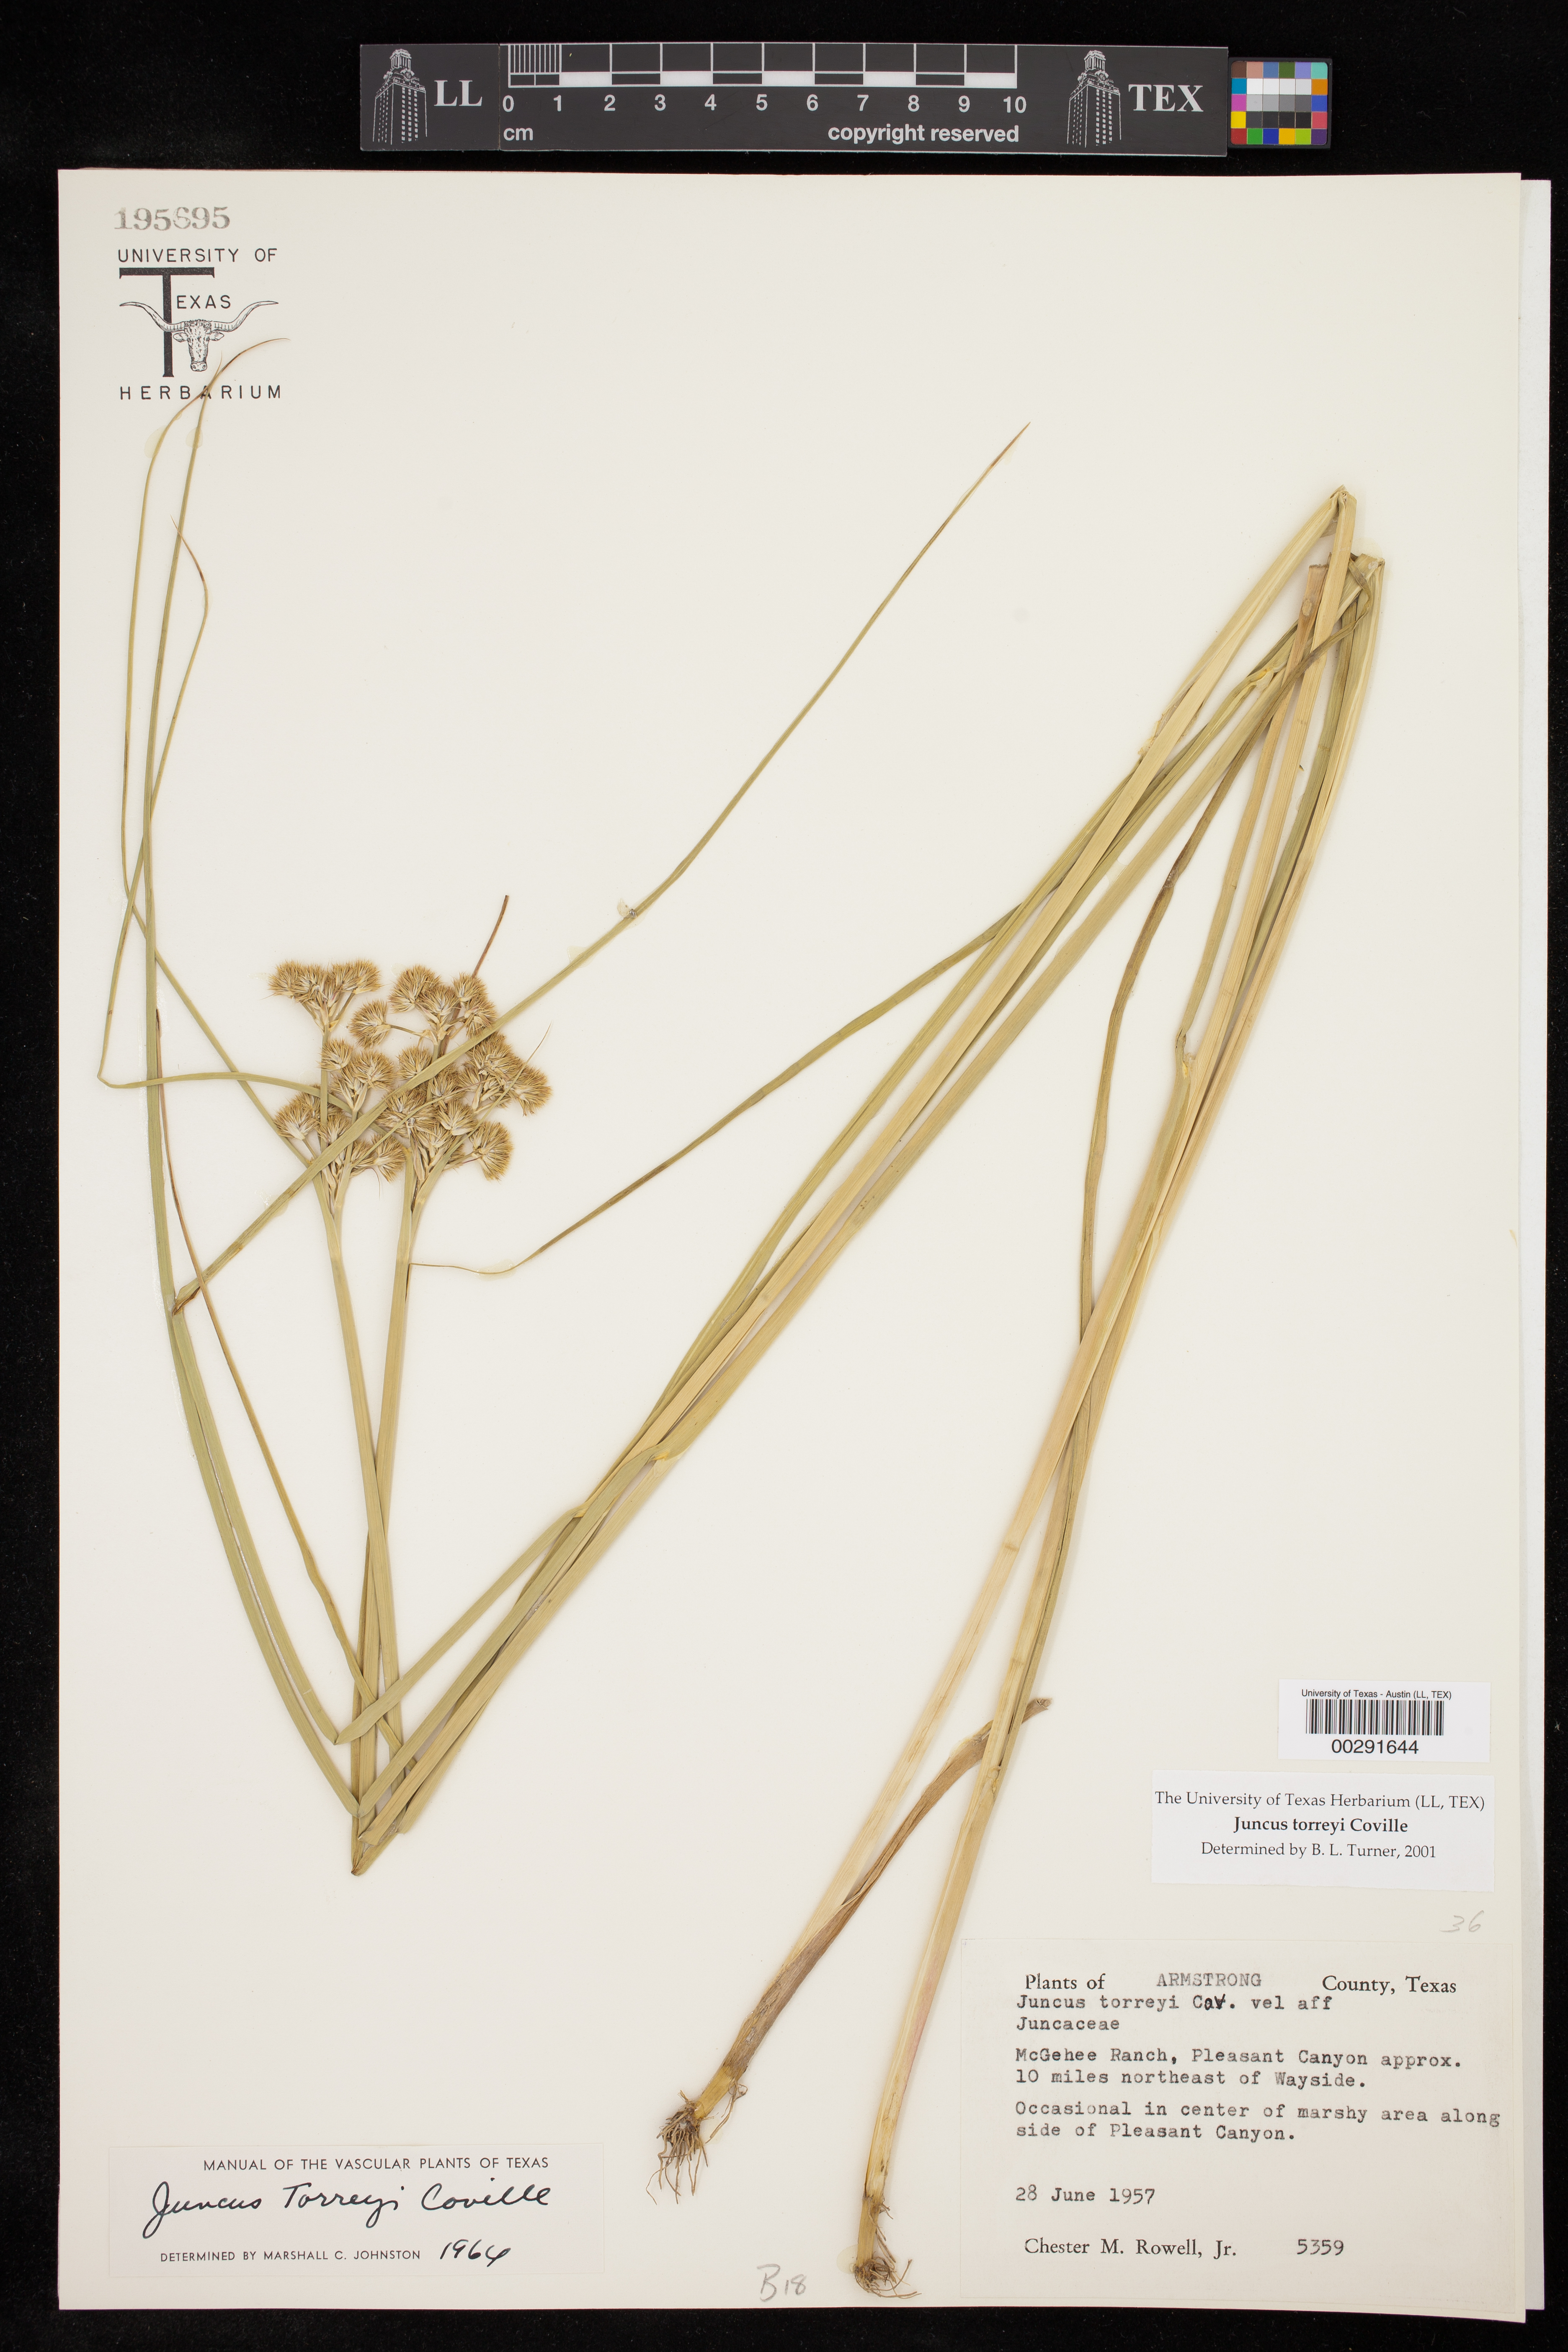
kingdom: Plantae
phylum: Tracheophyta
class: Liliopsida
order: Poales
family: Juncaceae
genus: Juncus
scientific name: Juncus torreyi
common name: Torrey's rush
